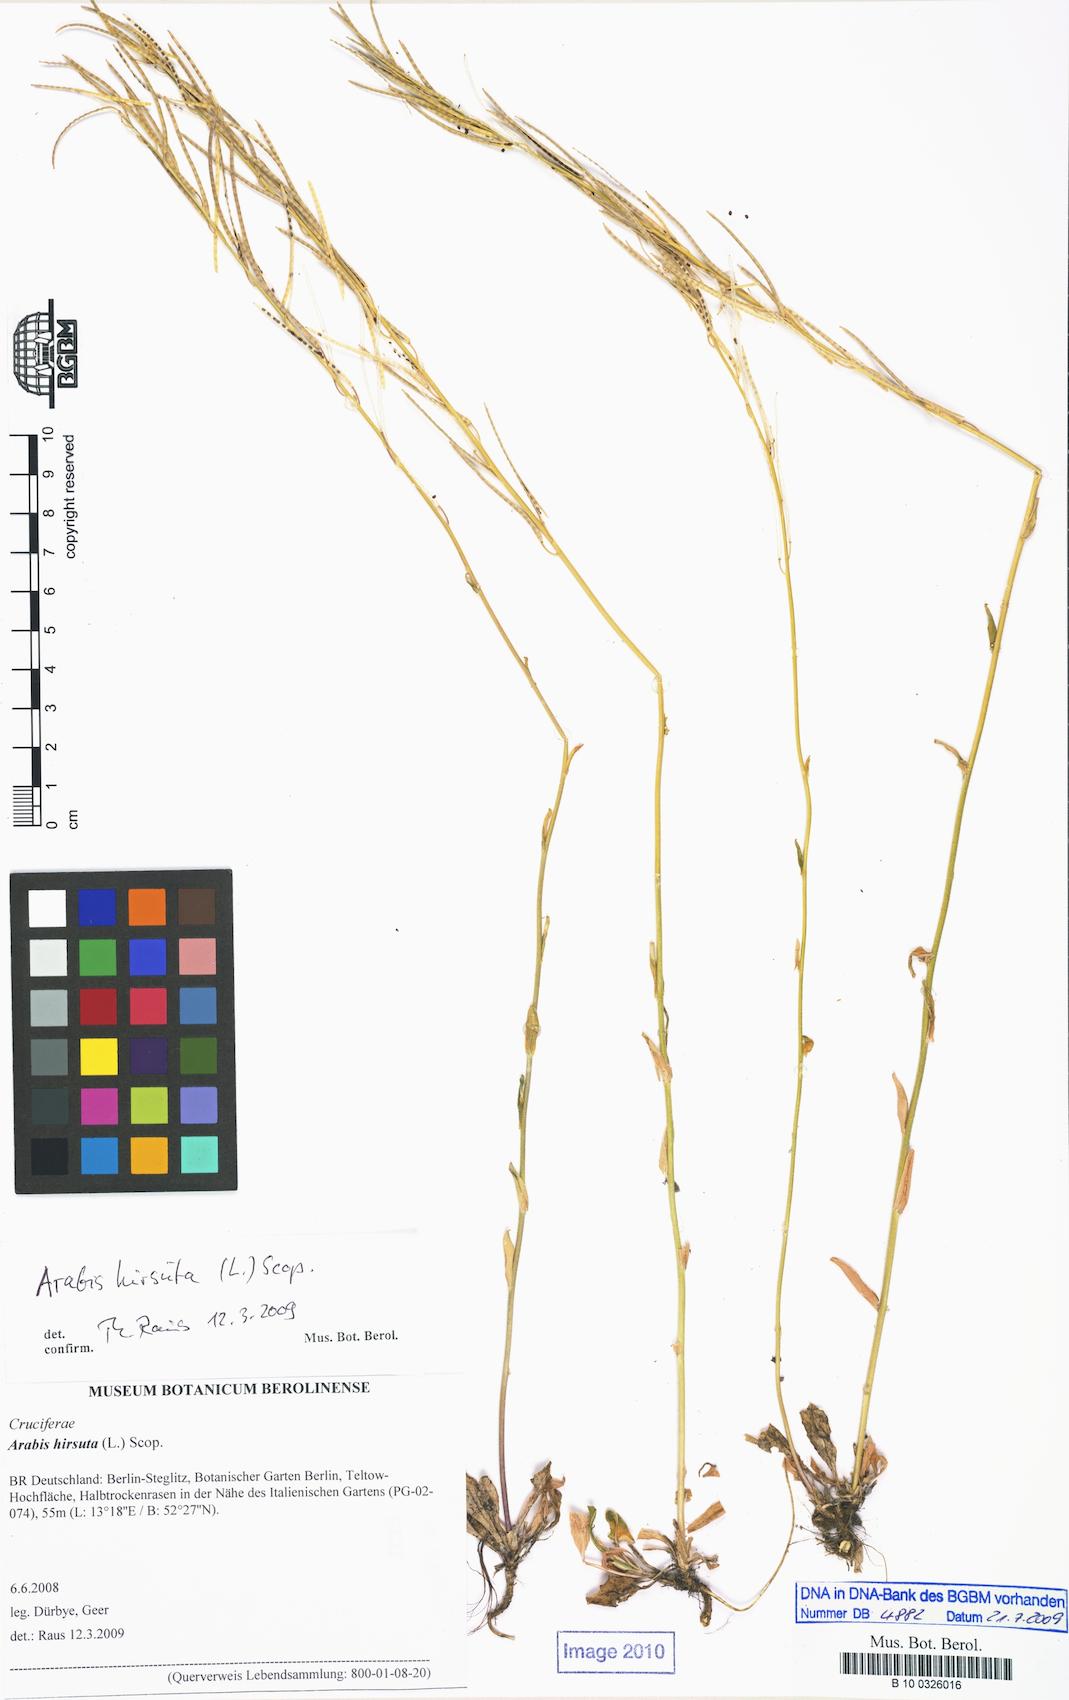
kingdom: Plantae
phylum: Tracheophyta
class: Magnoliopsida
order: Brassicales
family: Brassicaceae
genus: Arabis
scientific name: Arabis hirsuta
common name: Hairy rock-cress
